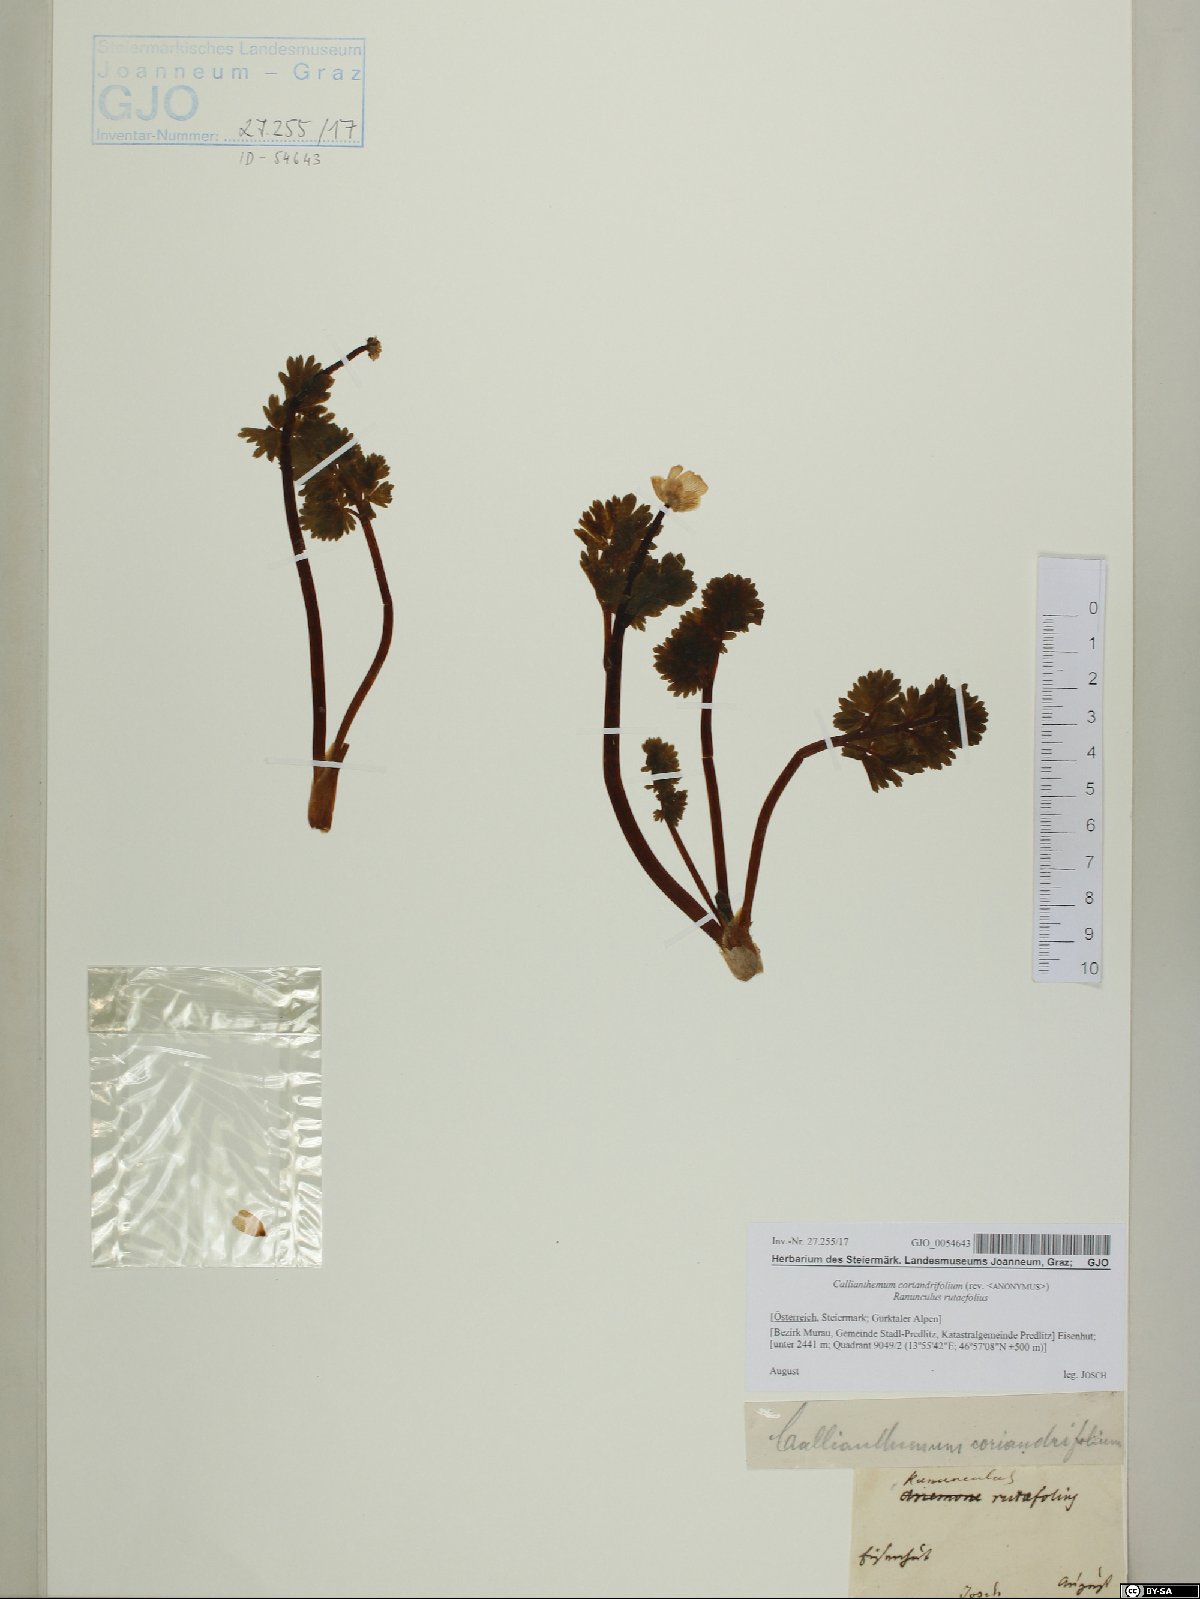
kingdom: Plantae
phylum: Tracheophyta
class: Magnoliopsida
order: Ranunculales
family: Ranunculaceae
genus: Callianthemum
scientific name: Callianthemum coriandrifolium
